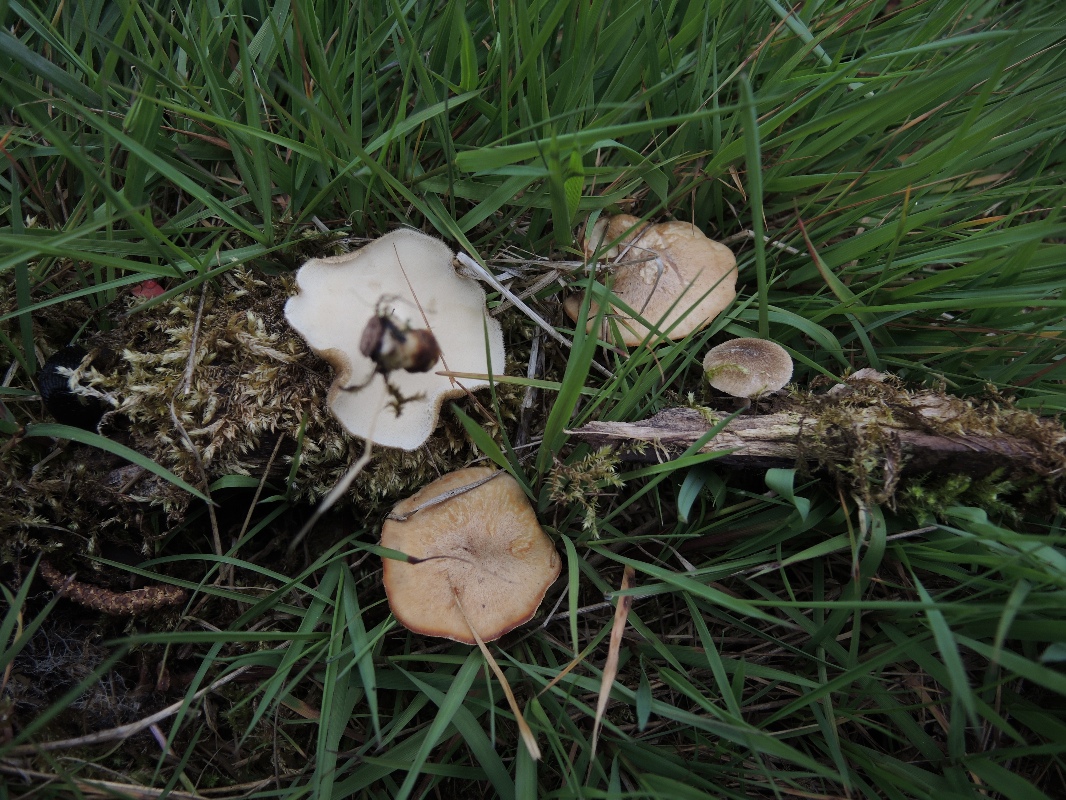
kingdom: Fungi
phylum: Basidiomycota
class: Agaricomycetes
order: Polyporales
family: Polyporaceae
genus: Lentinus
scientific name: Lentinus substrictus
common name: forårs-stilkporesvamp
